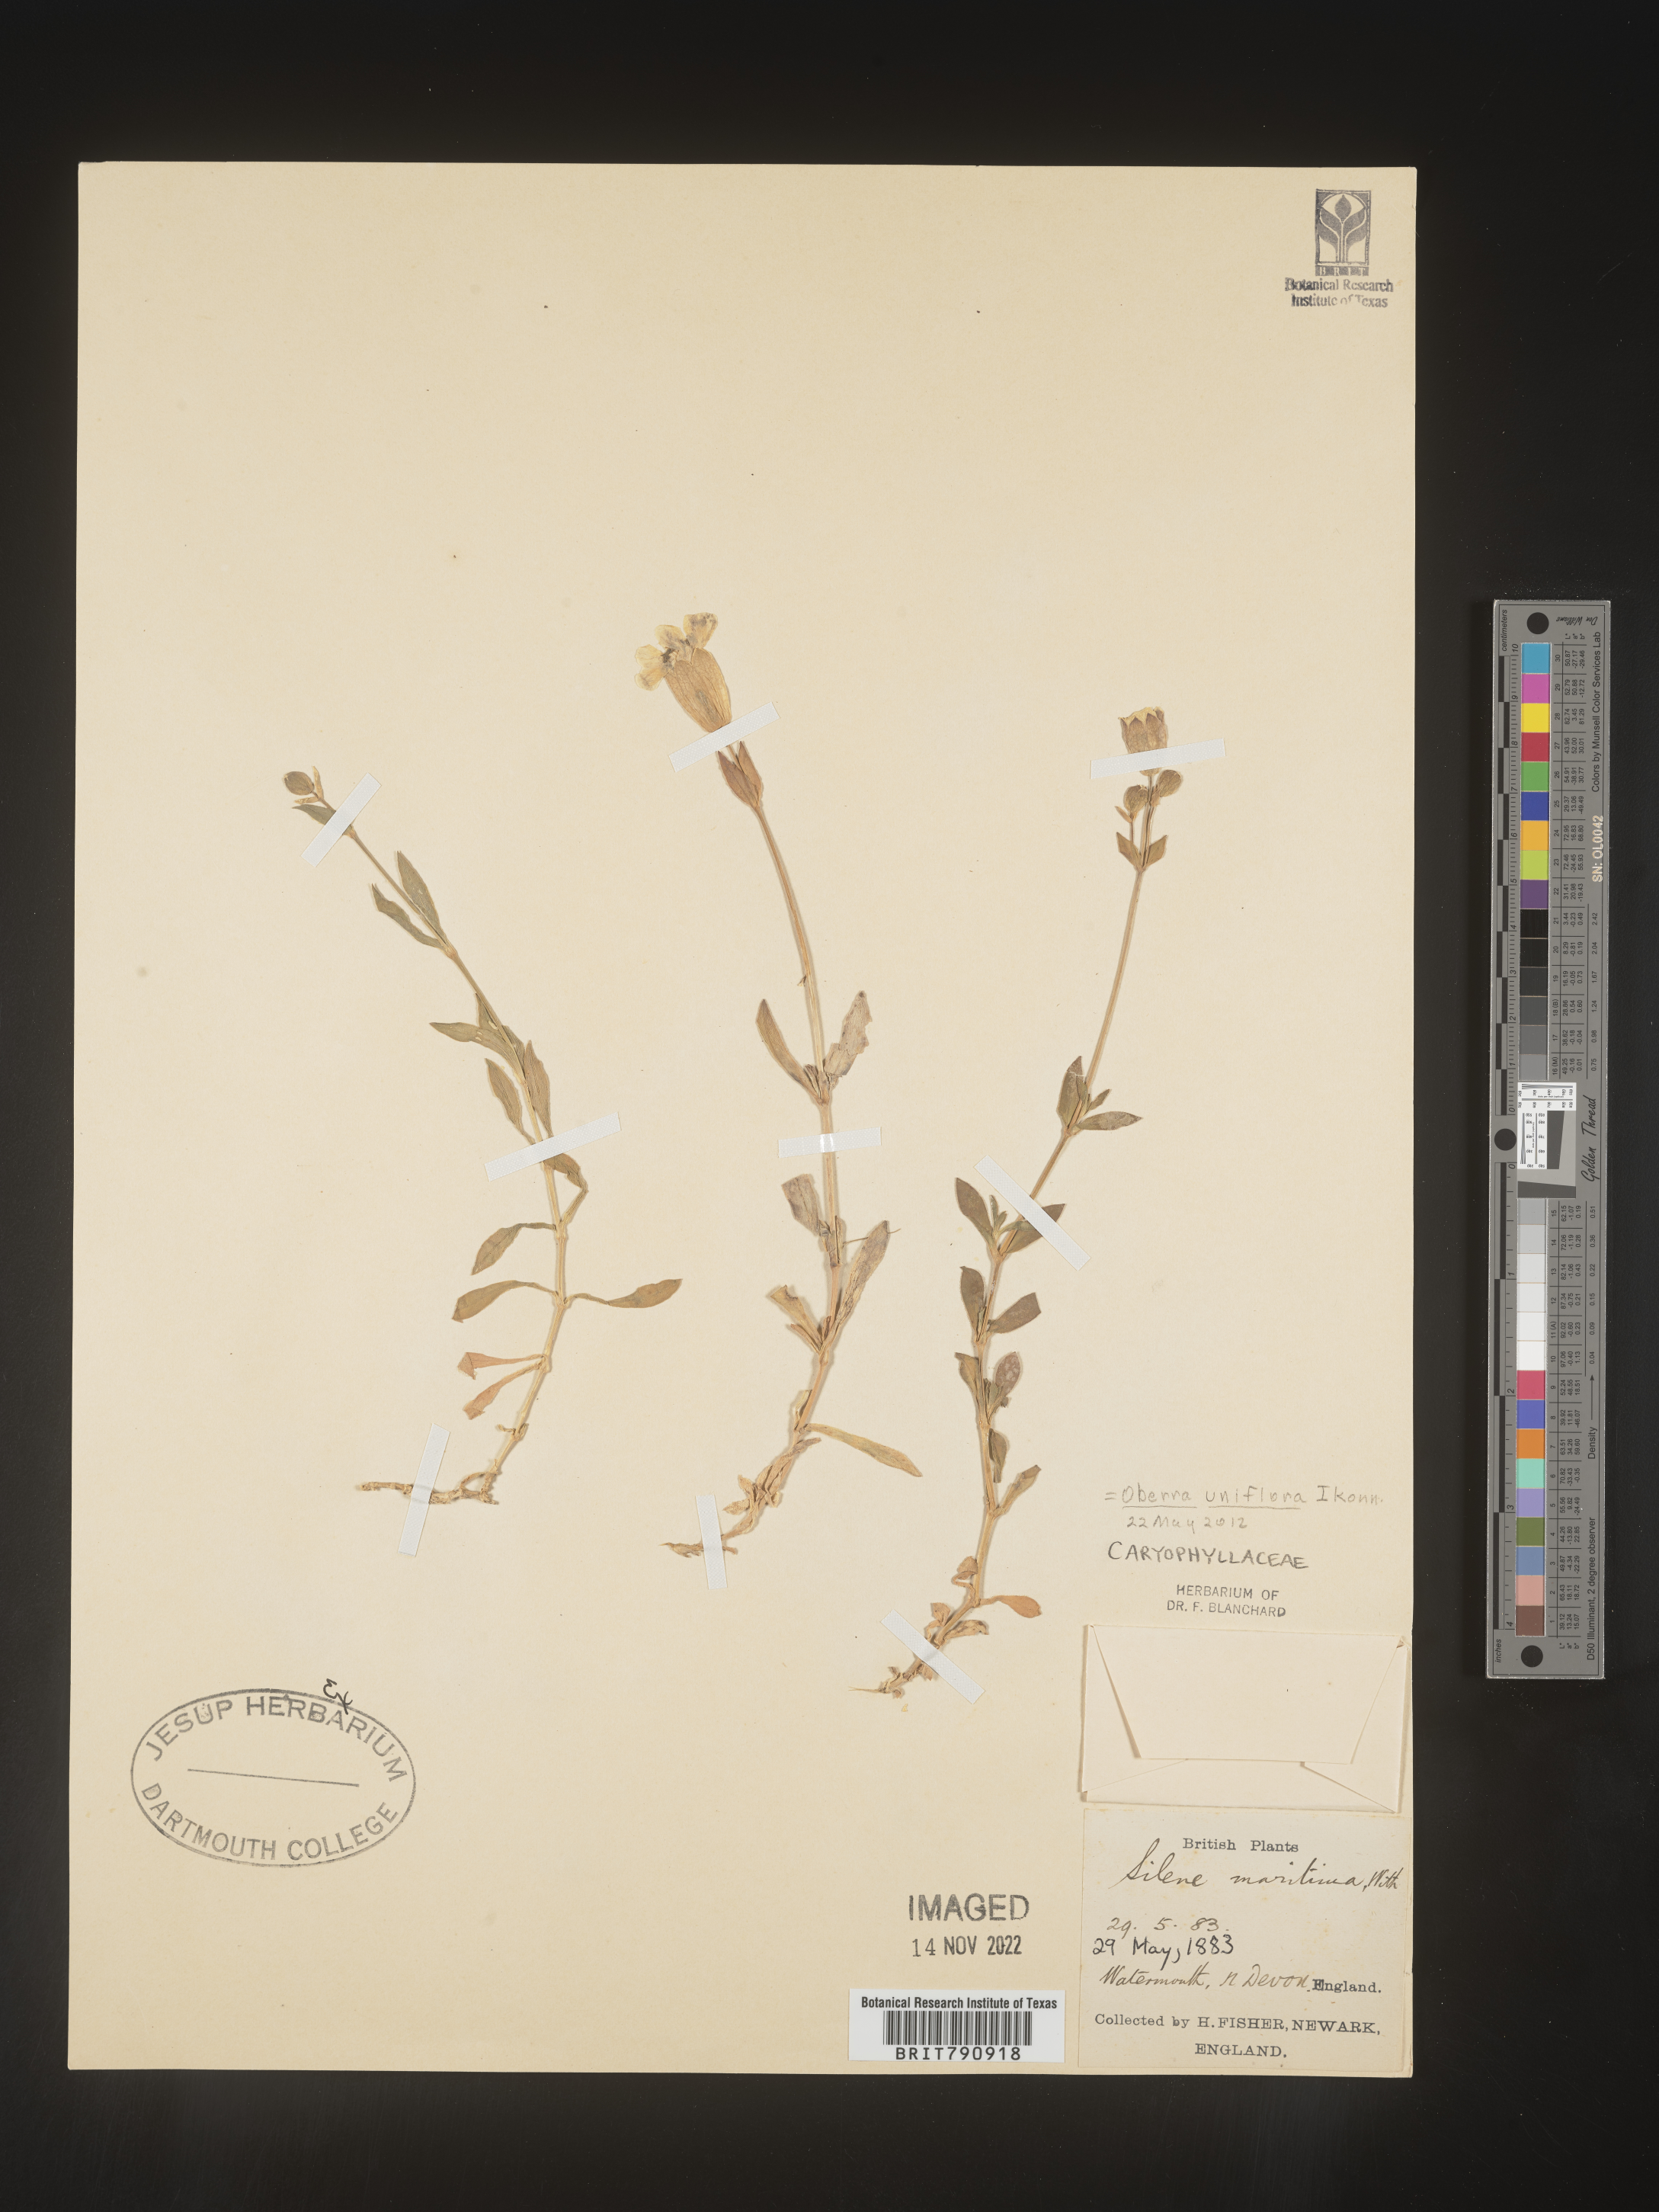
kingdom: Plantae
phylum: Tracheophyta
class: Magnoliopsida
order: Caryophyllales
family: Caryophyllaceae
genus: Silene
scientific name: Silene
